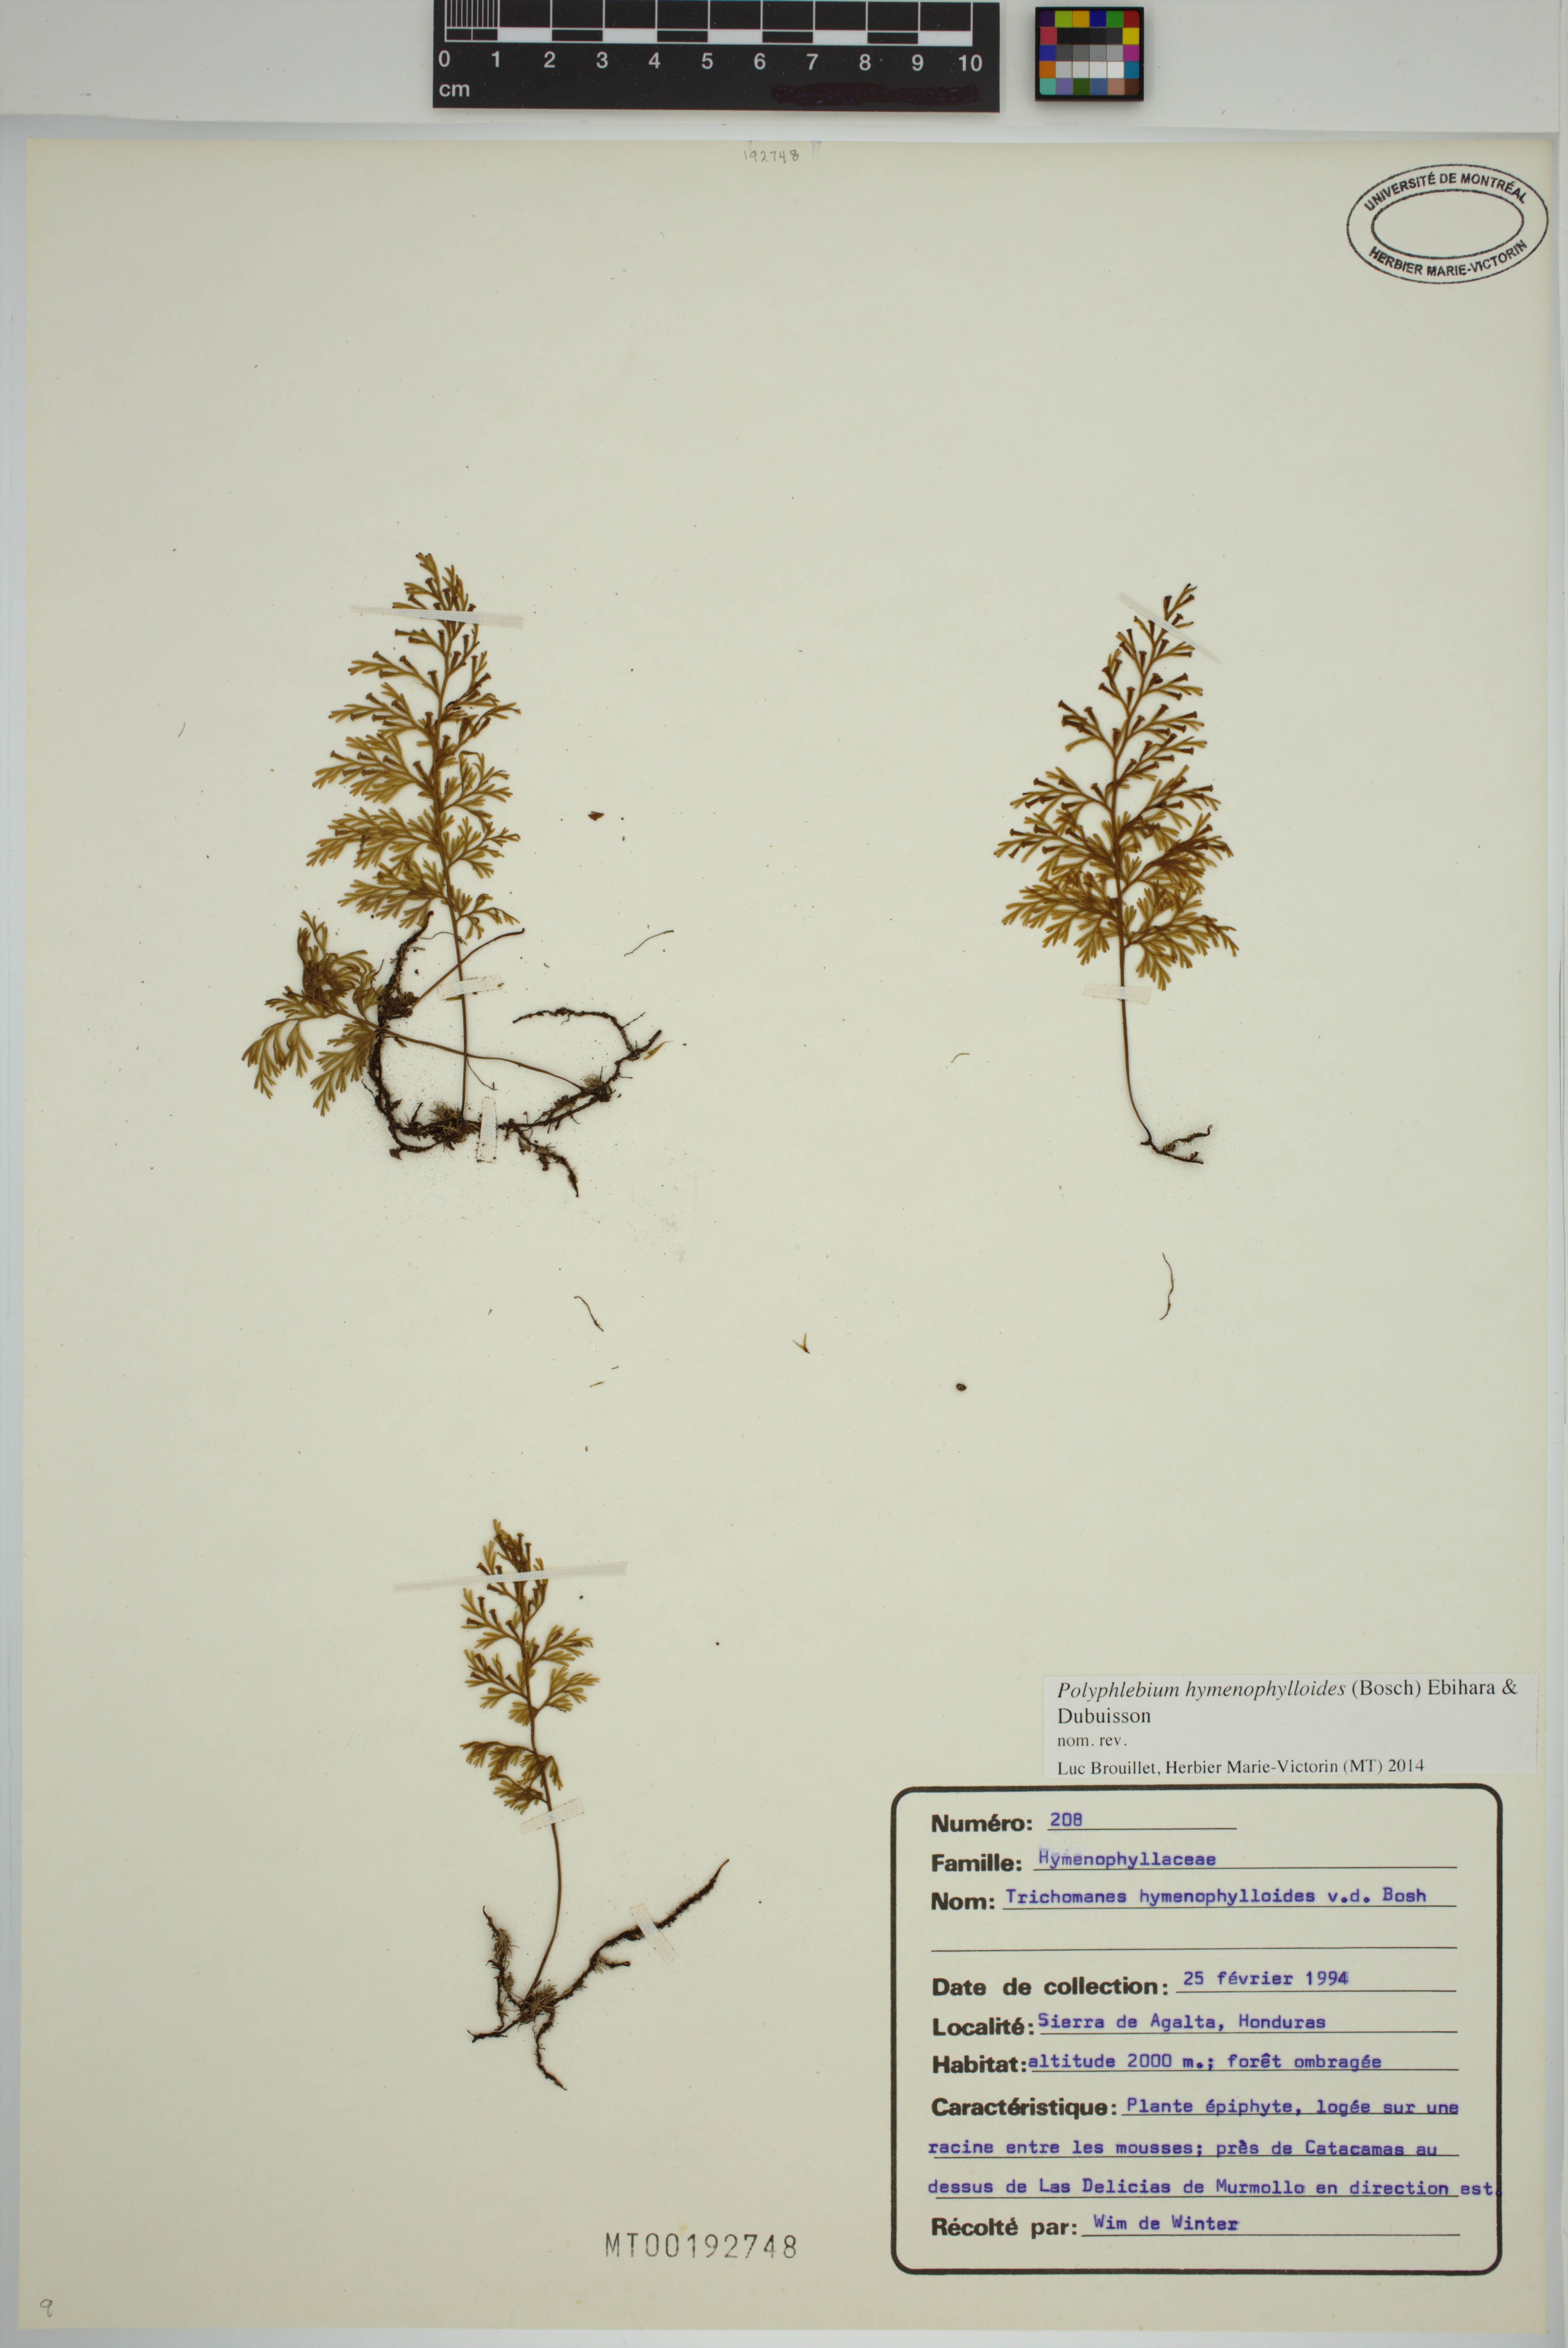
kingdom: Plantae
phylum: Tracheophyta
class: Polypodiopsida
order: Hymenophyllales
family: Hymenophyllaceae
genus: Polyphlebium
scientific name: Polyphlebium hymenophylloides
